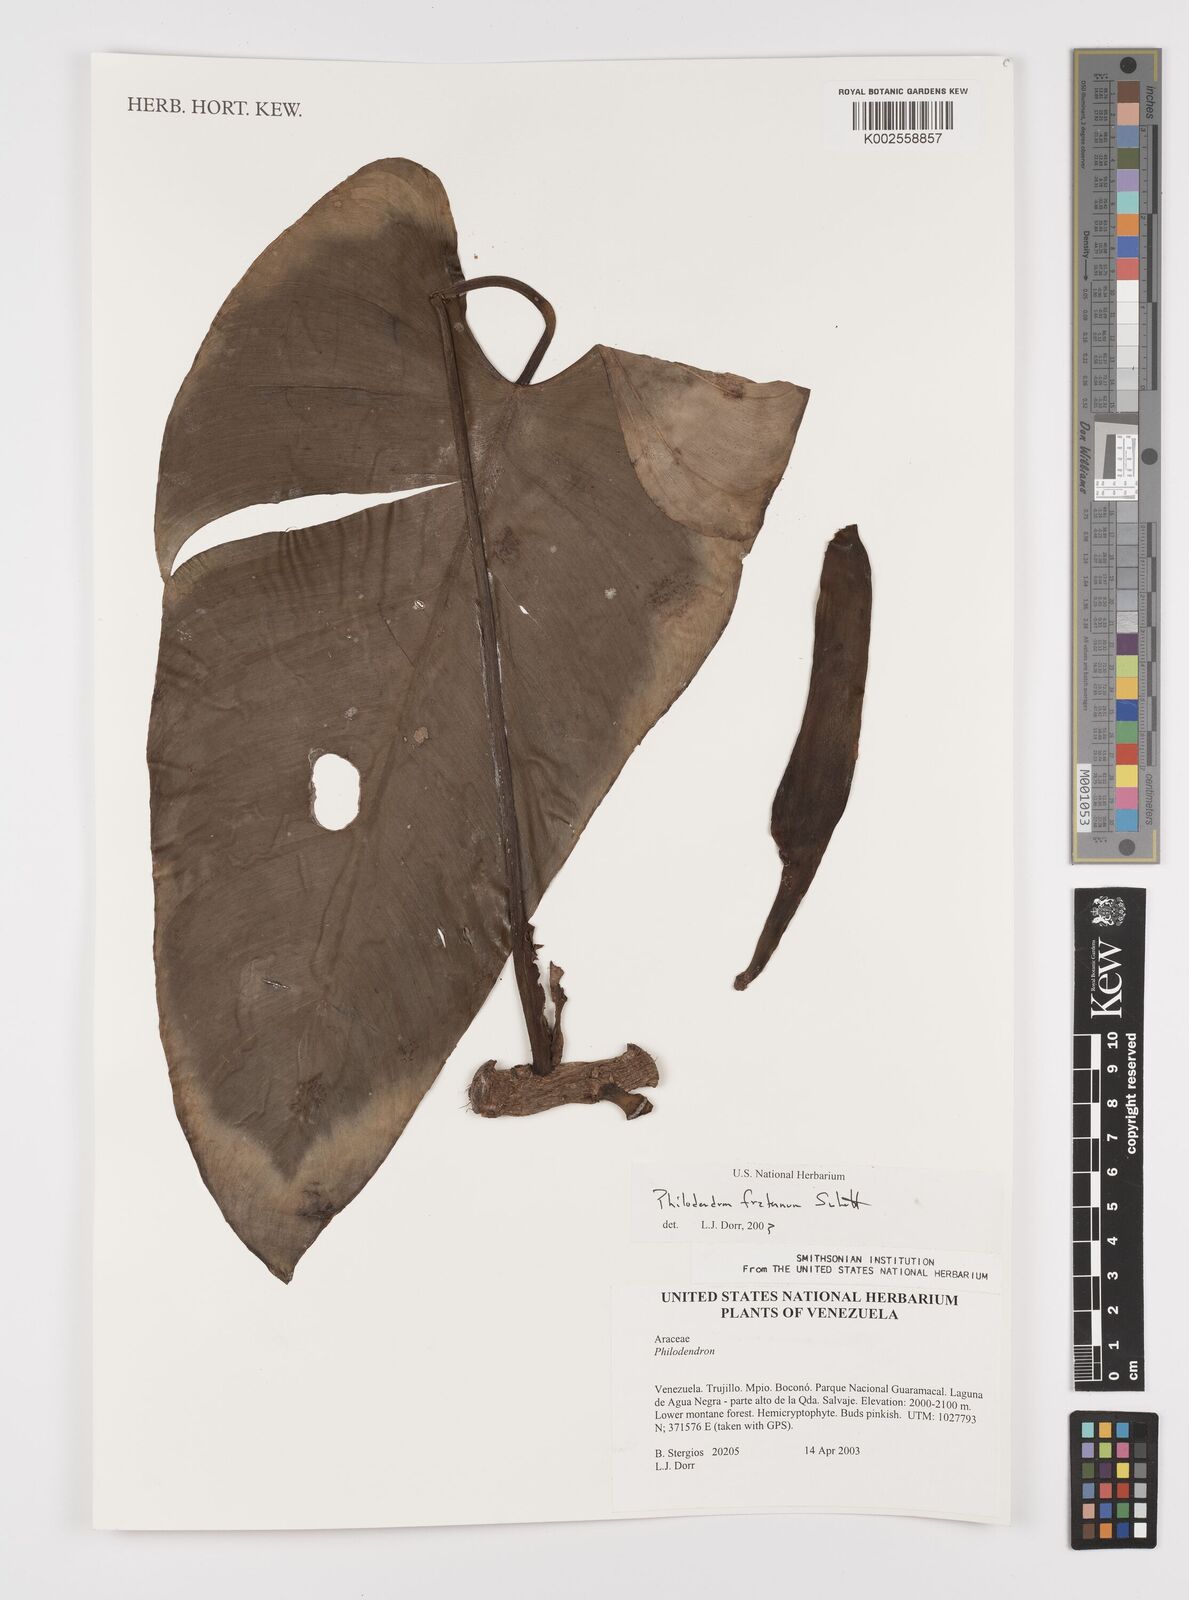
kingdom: Plantae
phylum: Tracheophyta
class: Liliopsida
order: Alismatales
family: Araceae
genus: Philodendron
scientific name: Philodendron fraternum
